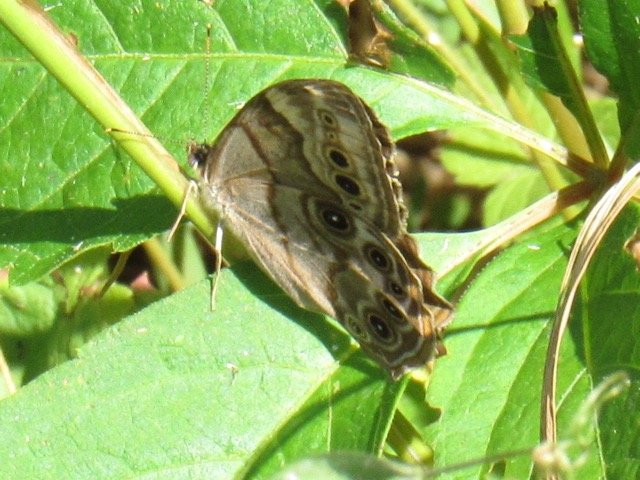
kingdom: Animalia
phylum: Arthropoda
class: Insecta
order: Lepidoptera
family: Nymphalidae
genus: Lethe
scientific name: Lethe anthedon
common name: Northern Pearly-Eye
